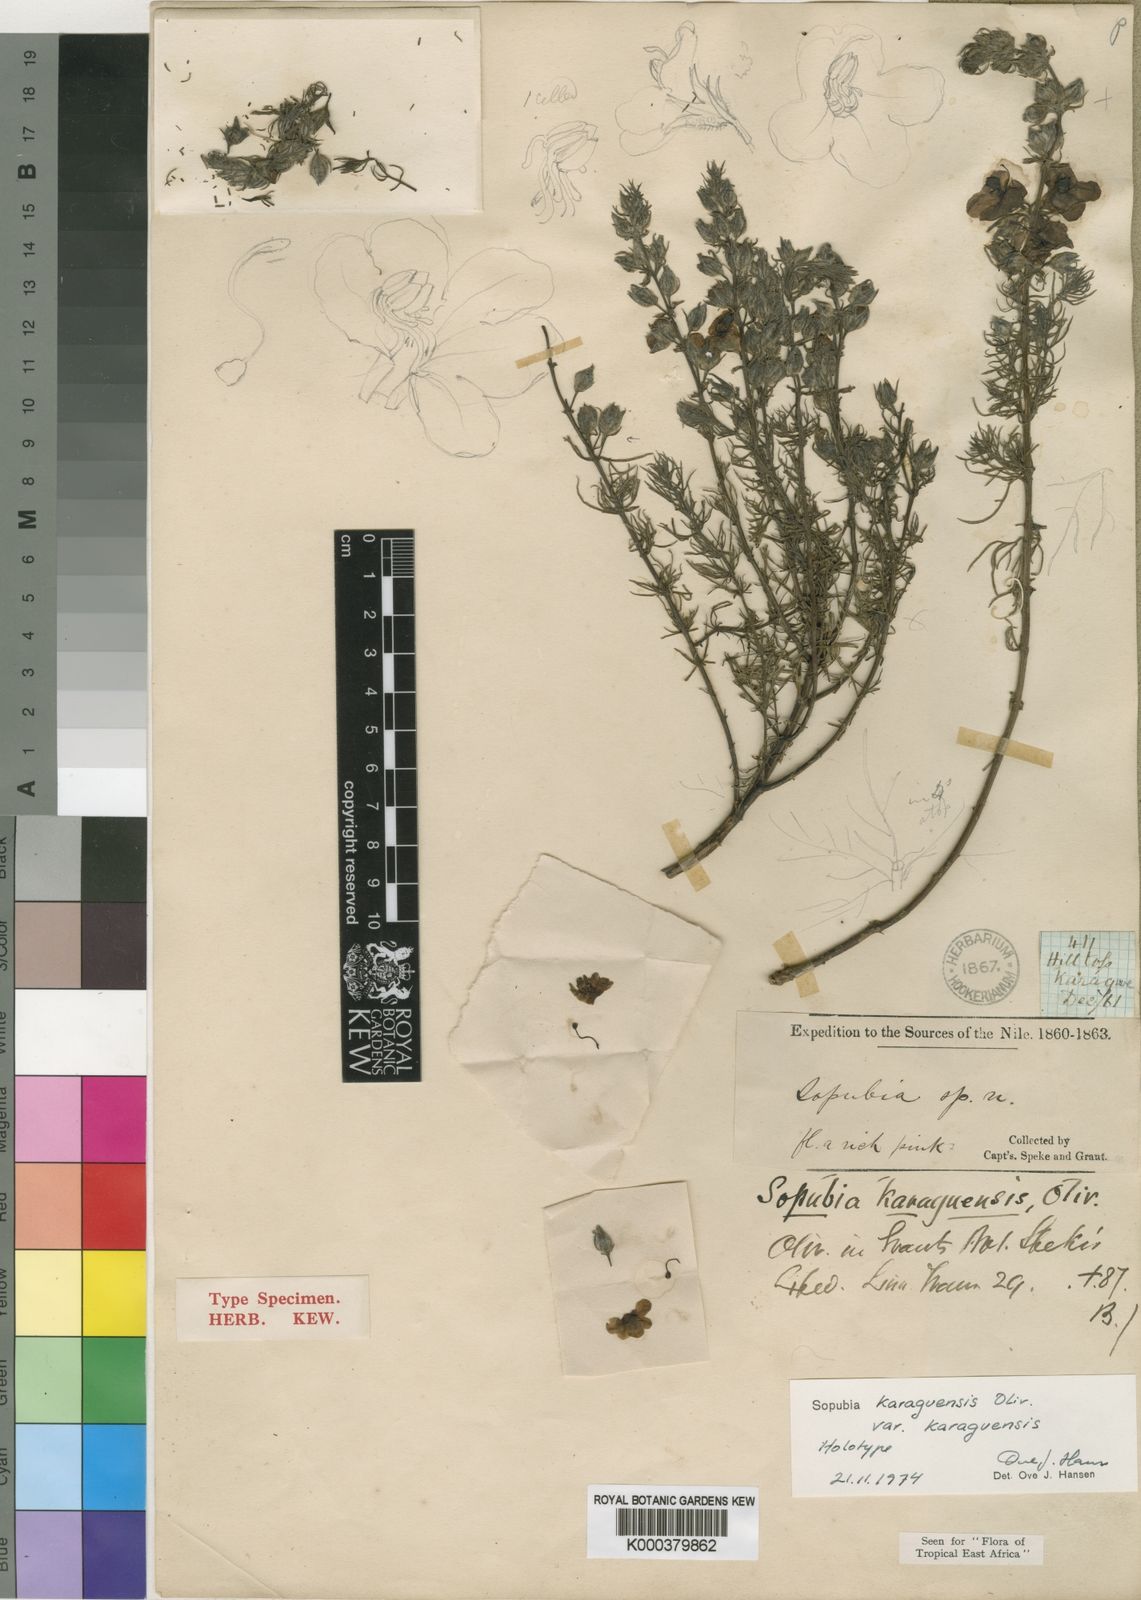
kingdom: Plantae
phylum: Tracheophyta
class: Magnoliopsida
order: Lamiales
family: Orobanchaceae
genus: Sopubia
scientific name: Sopubia karaguensis
